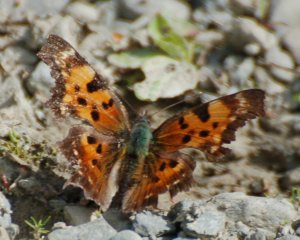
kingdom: Animalia
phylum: Arthropoda
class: Insecta
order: Lepidoptera
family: Nymphalidae
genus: Polygonia
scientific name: Polygonia faunus
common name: Green Comma
